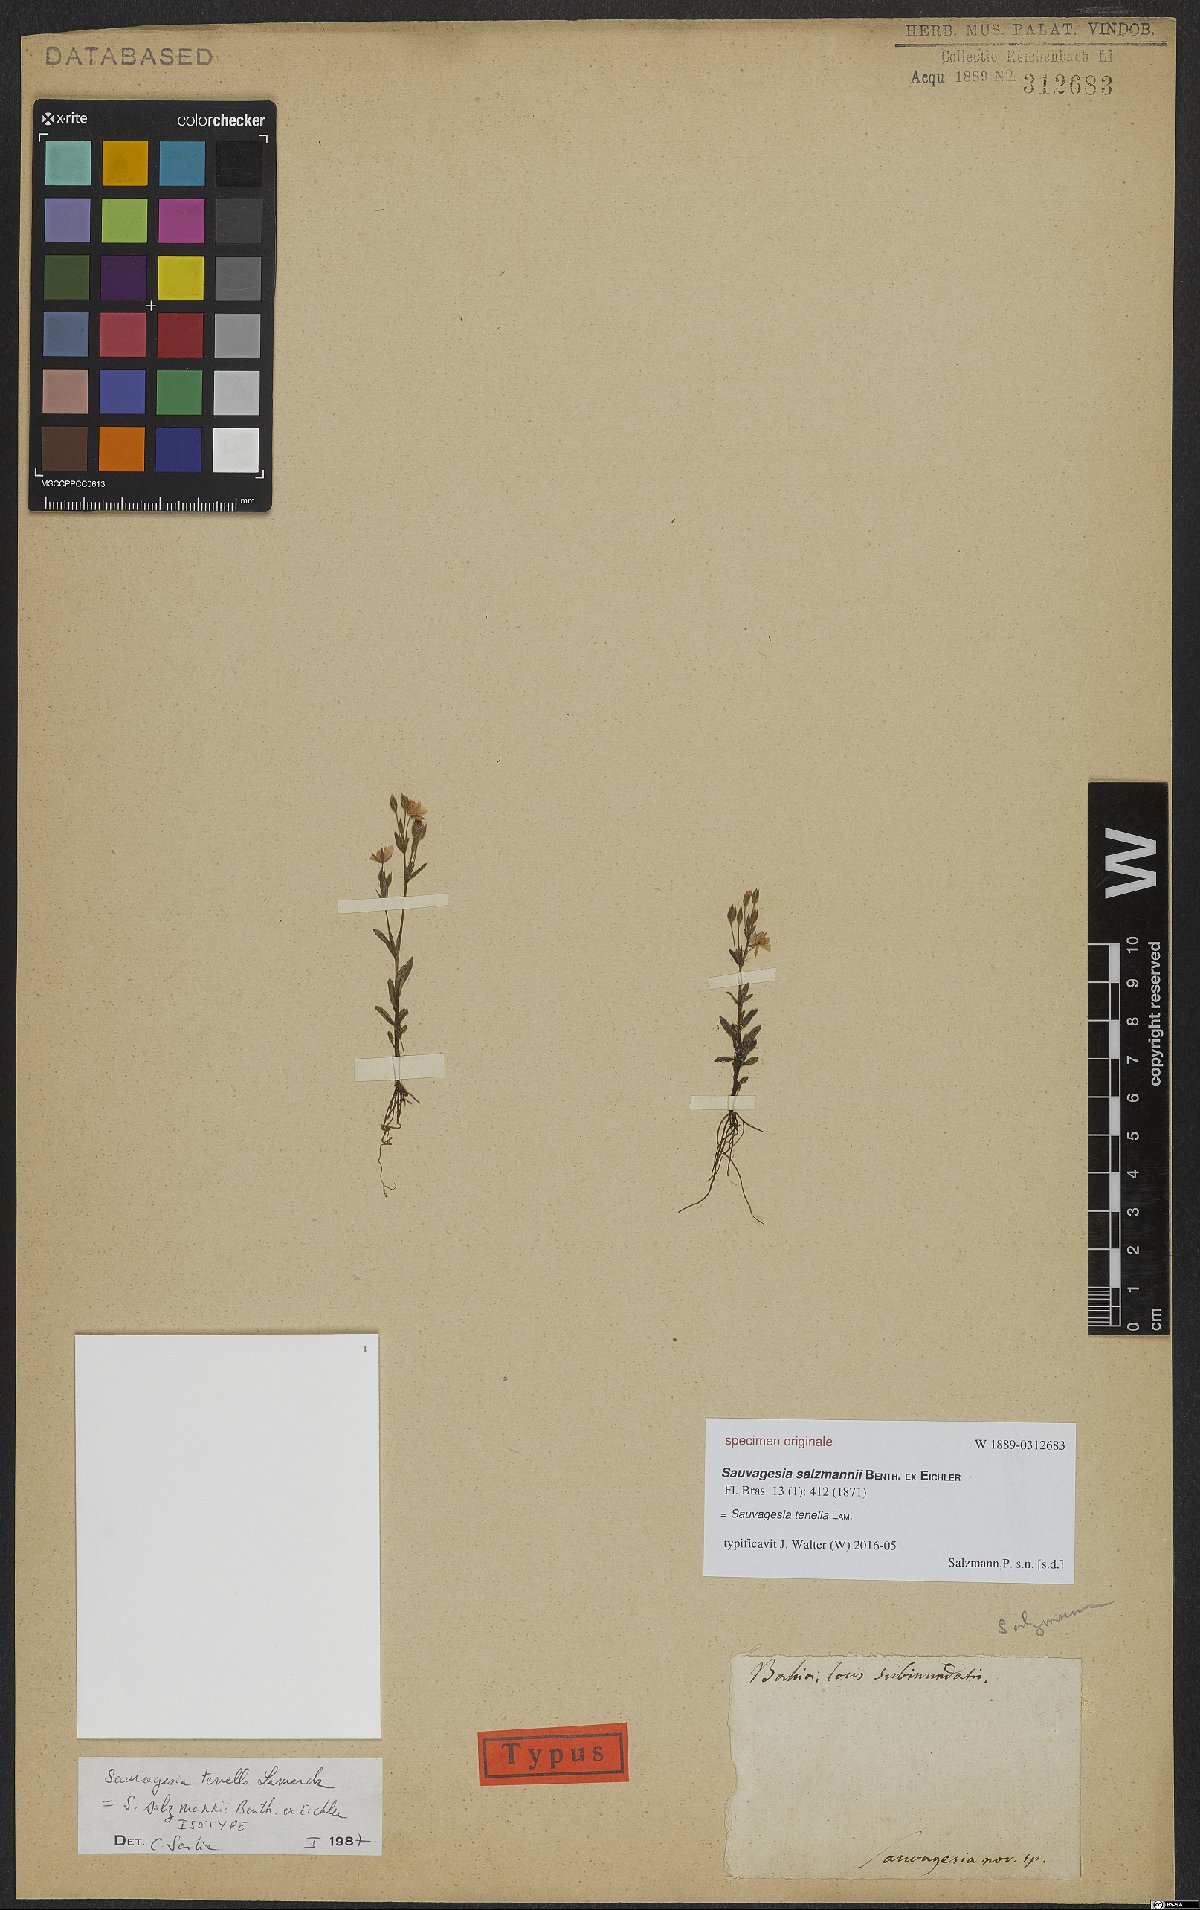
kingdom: Plantae
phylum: Tracheophyta
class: Magnoliopsida
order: Malpighiales
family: Ochnaceae
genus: Sauvagesia
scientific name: Sauvagesia tenella
